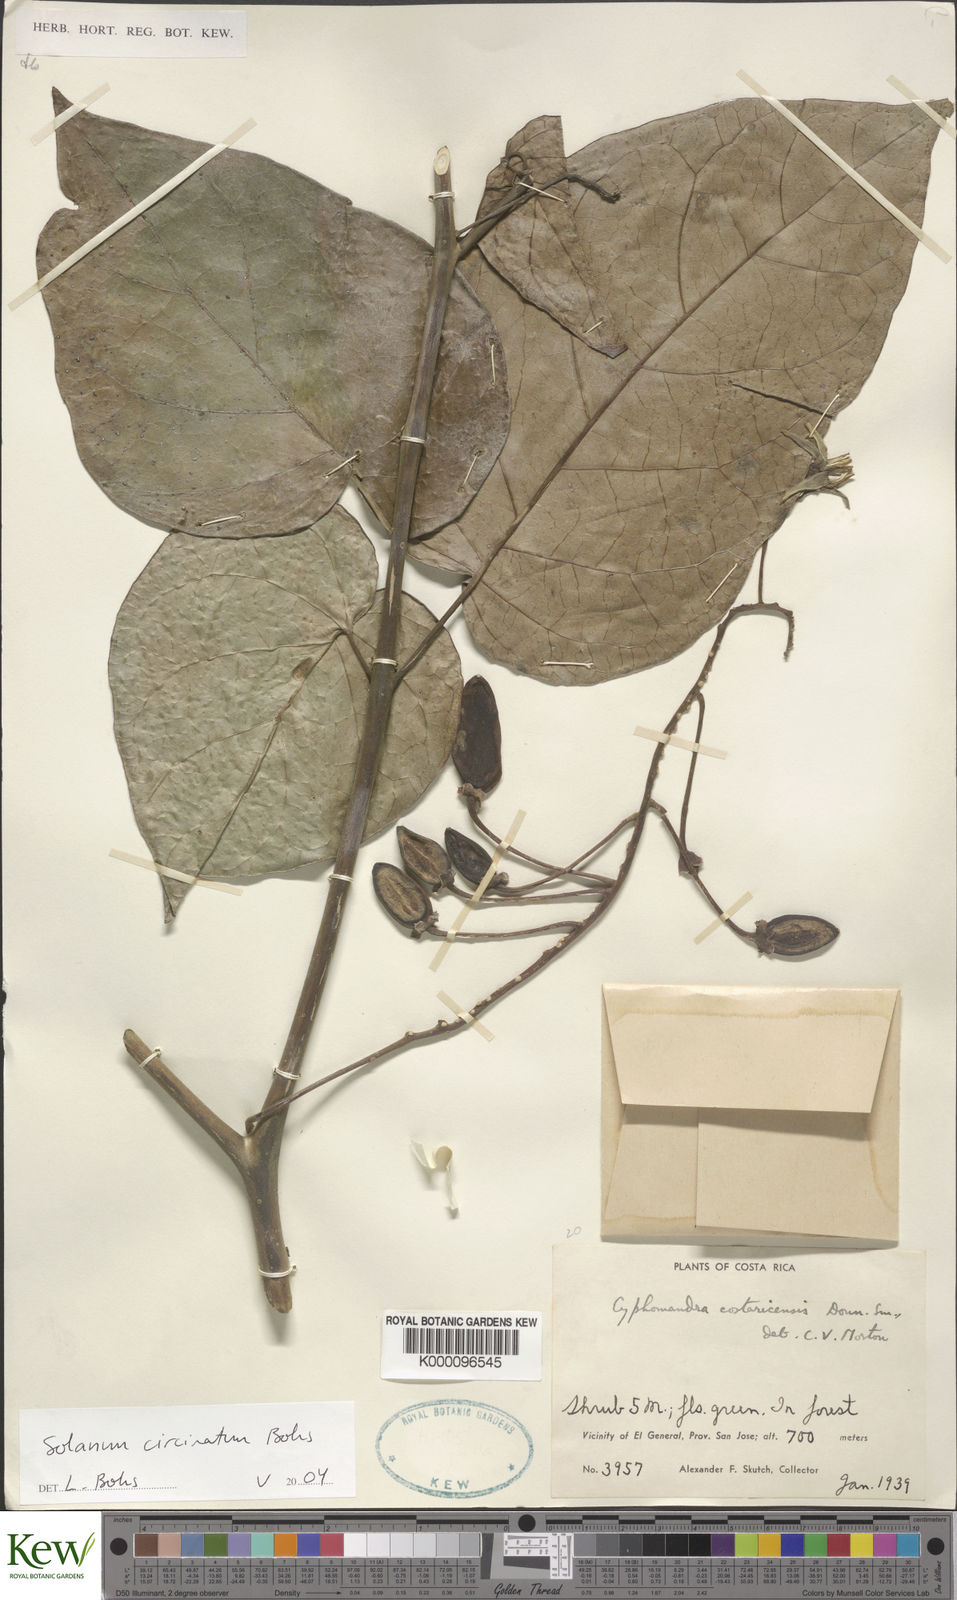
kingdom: Plantae
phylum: Tracheophyta
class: Magnoliopsida
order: Solanales
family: Solanaceae
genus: Solanum
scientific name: Solanum splendens
